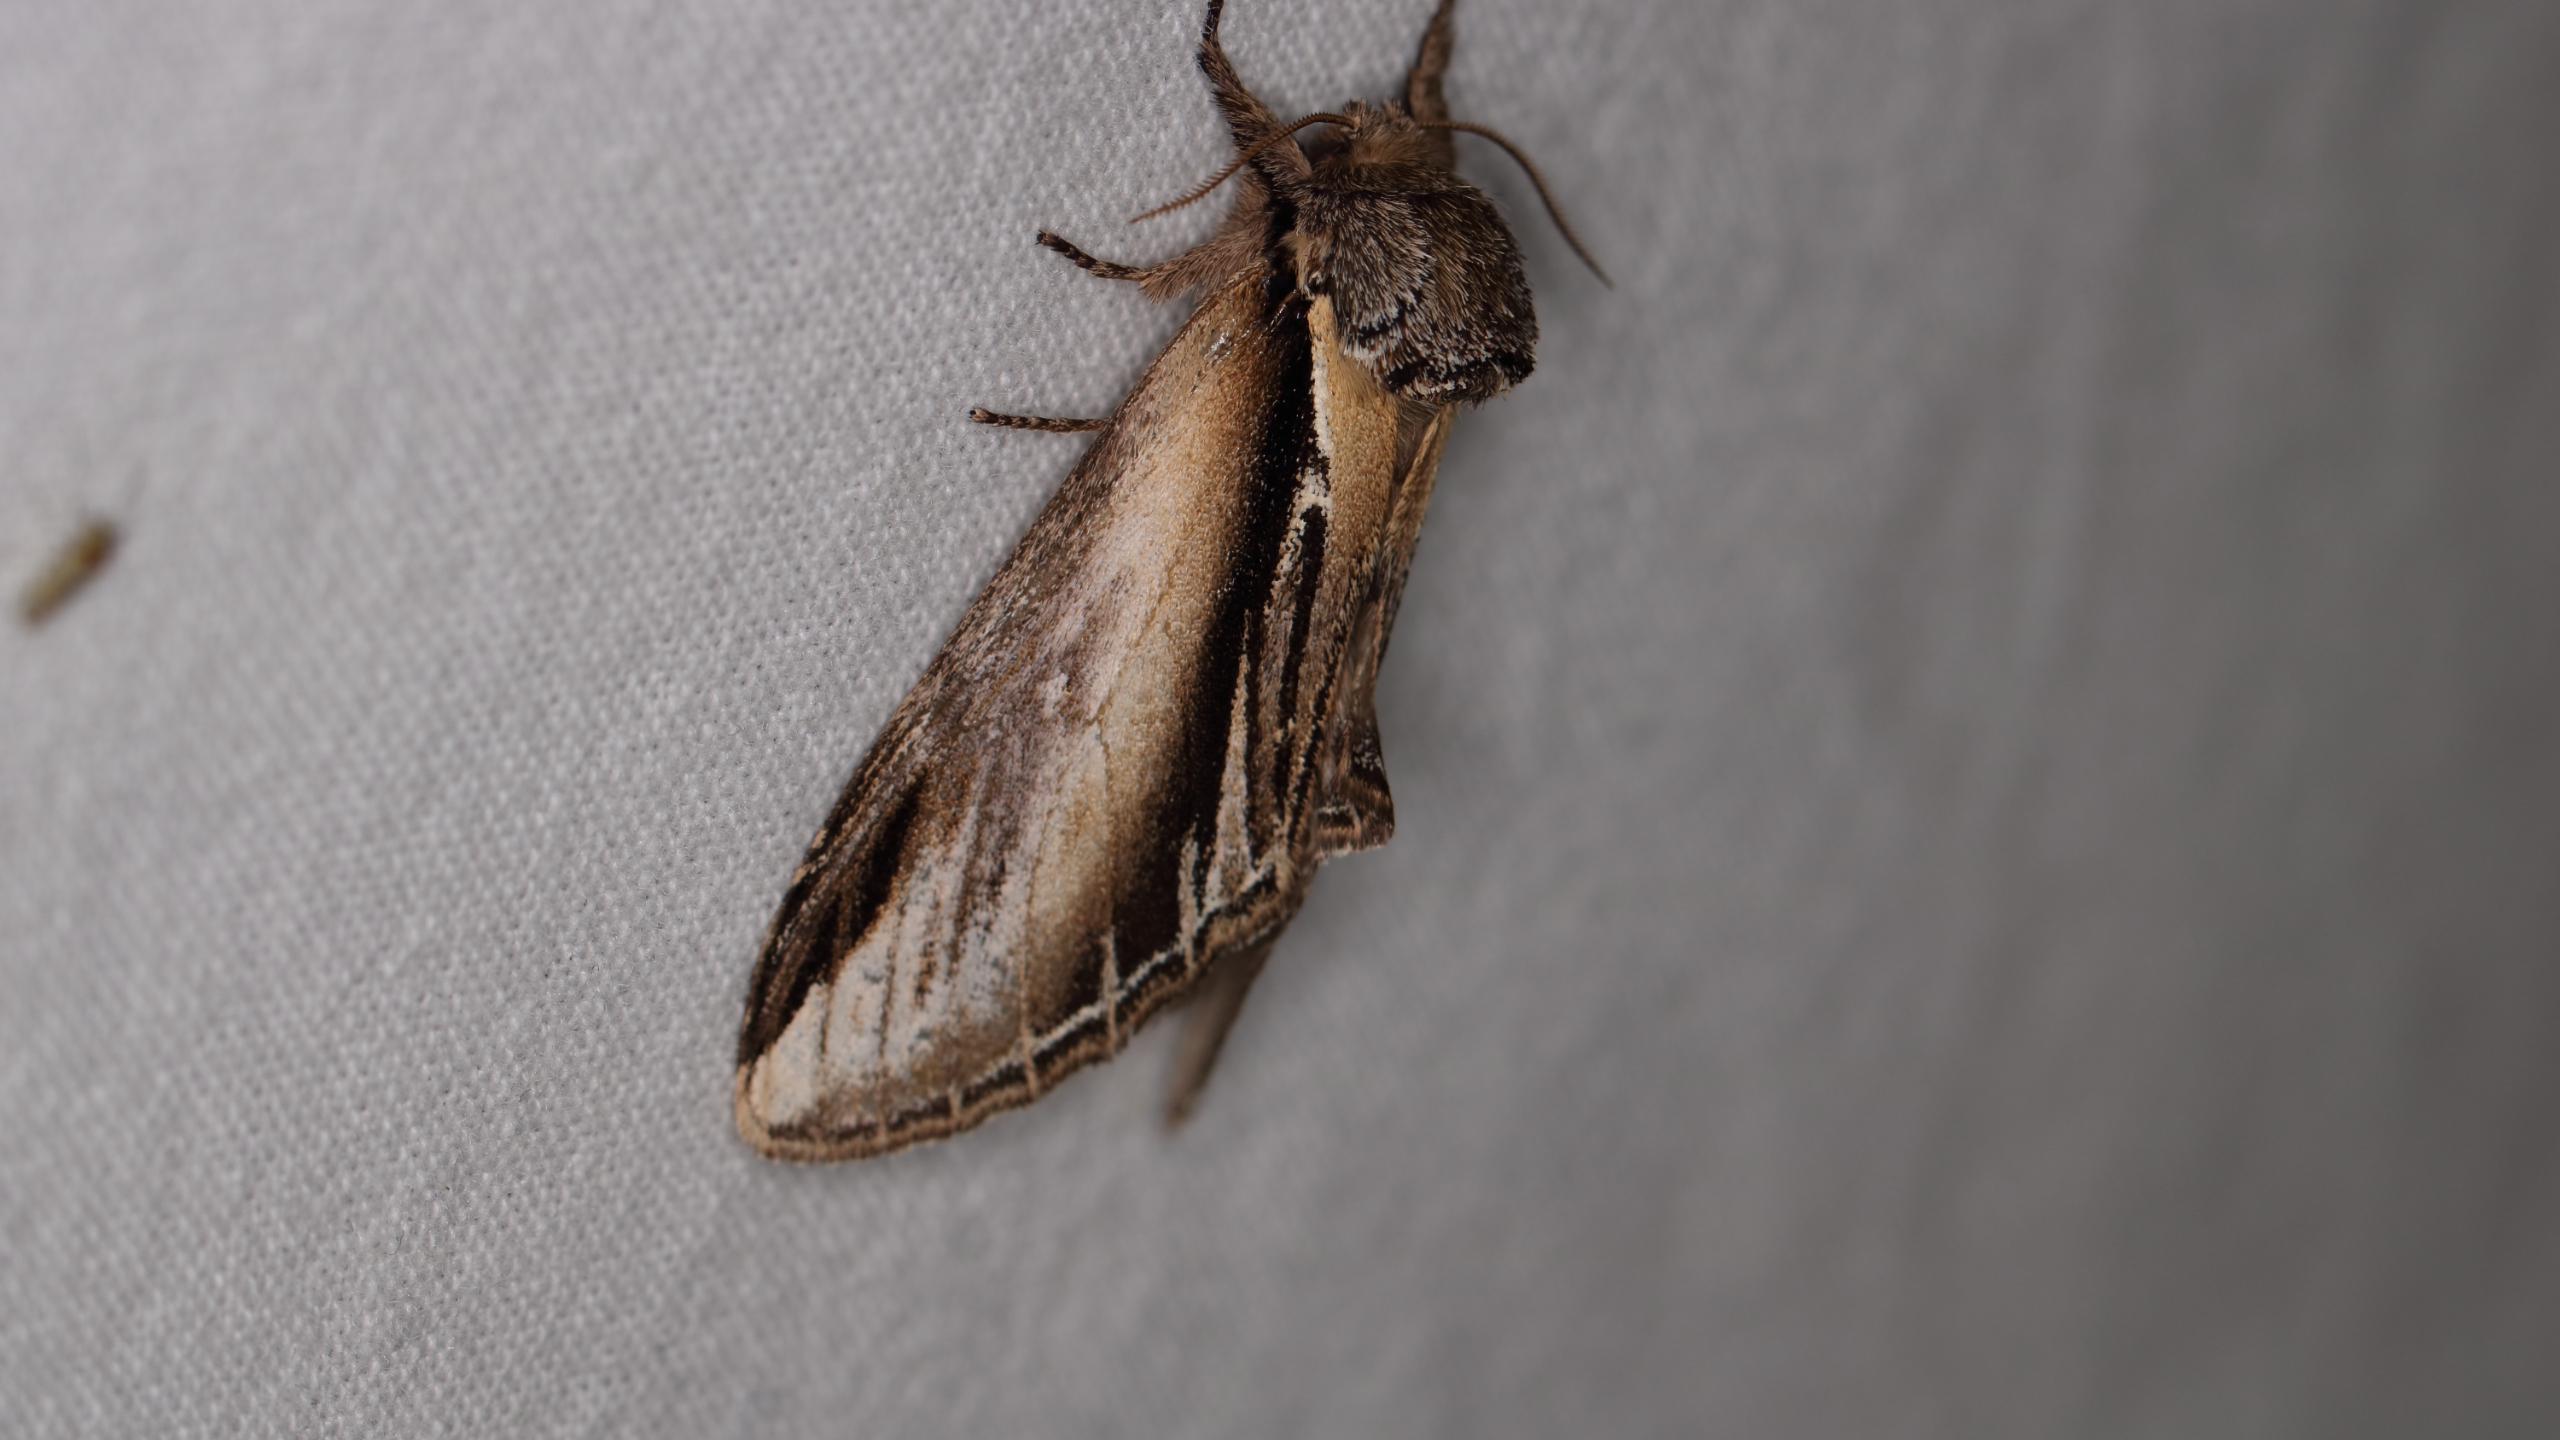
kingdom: Animalia
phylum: Arthropoda
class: Insecta
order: Lepidoptera
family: Notodontidae
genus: Pheosia
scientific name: Pheosia tremula
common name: Poppelporcelænsspinder
